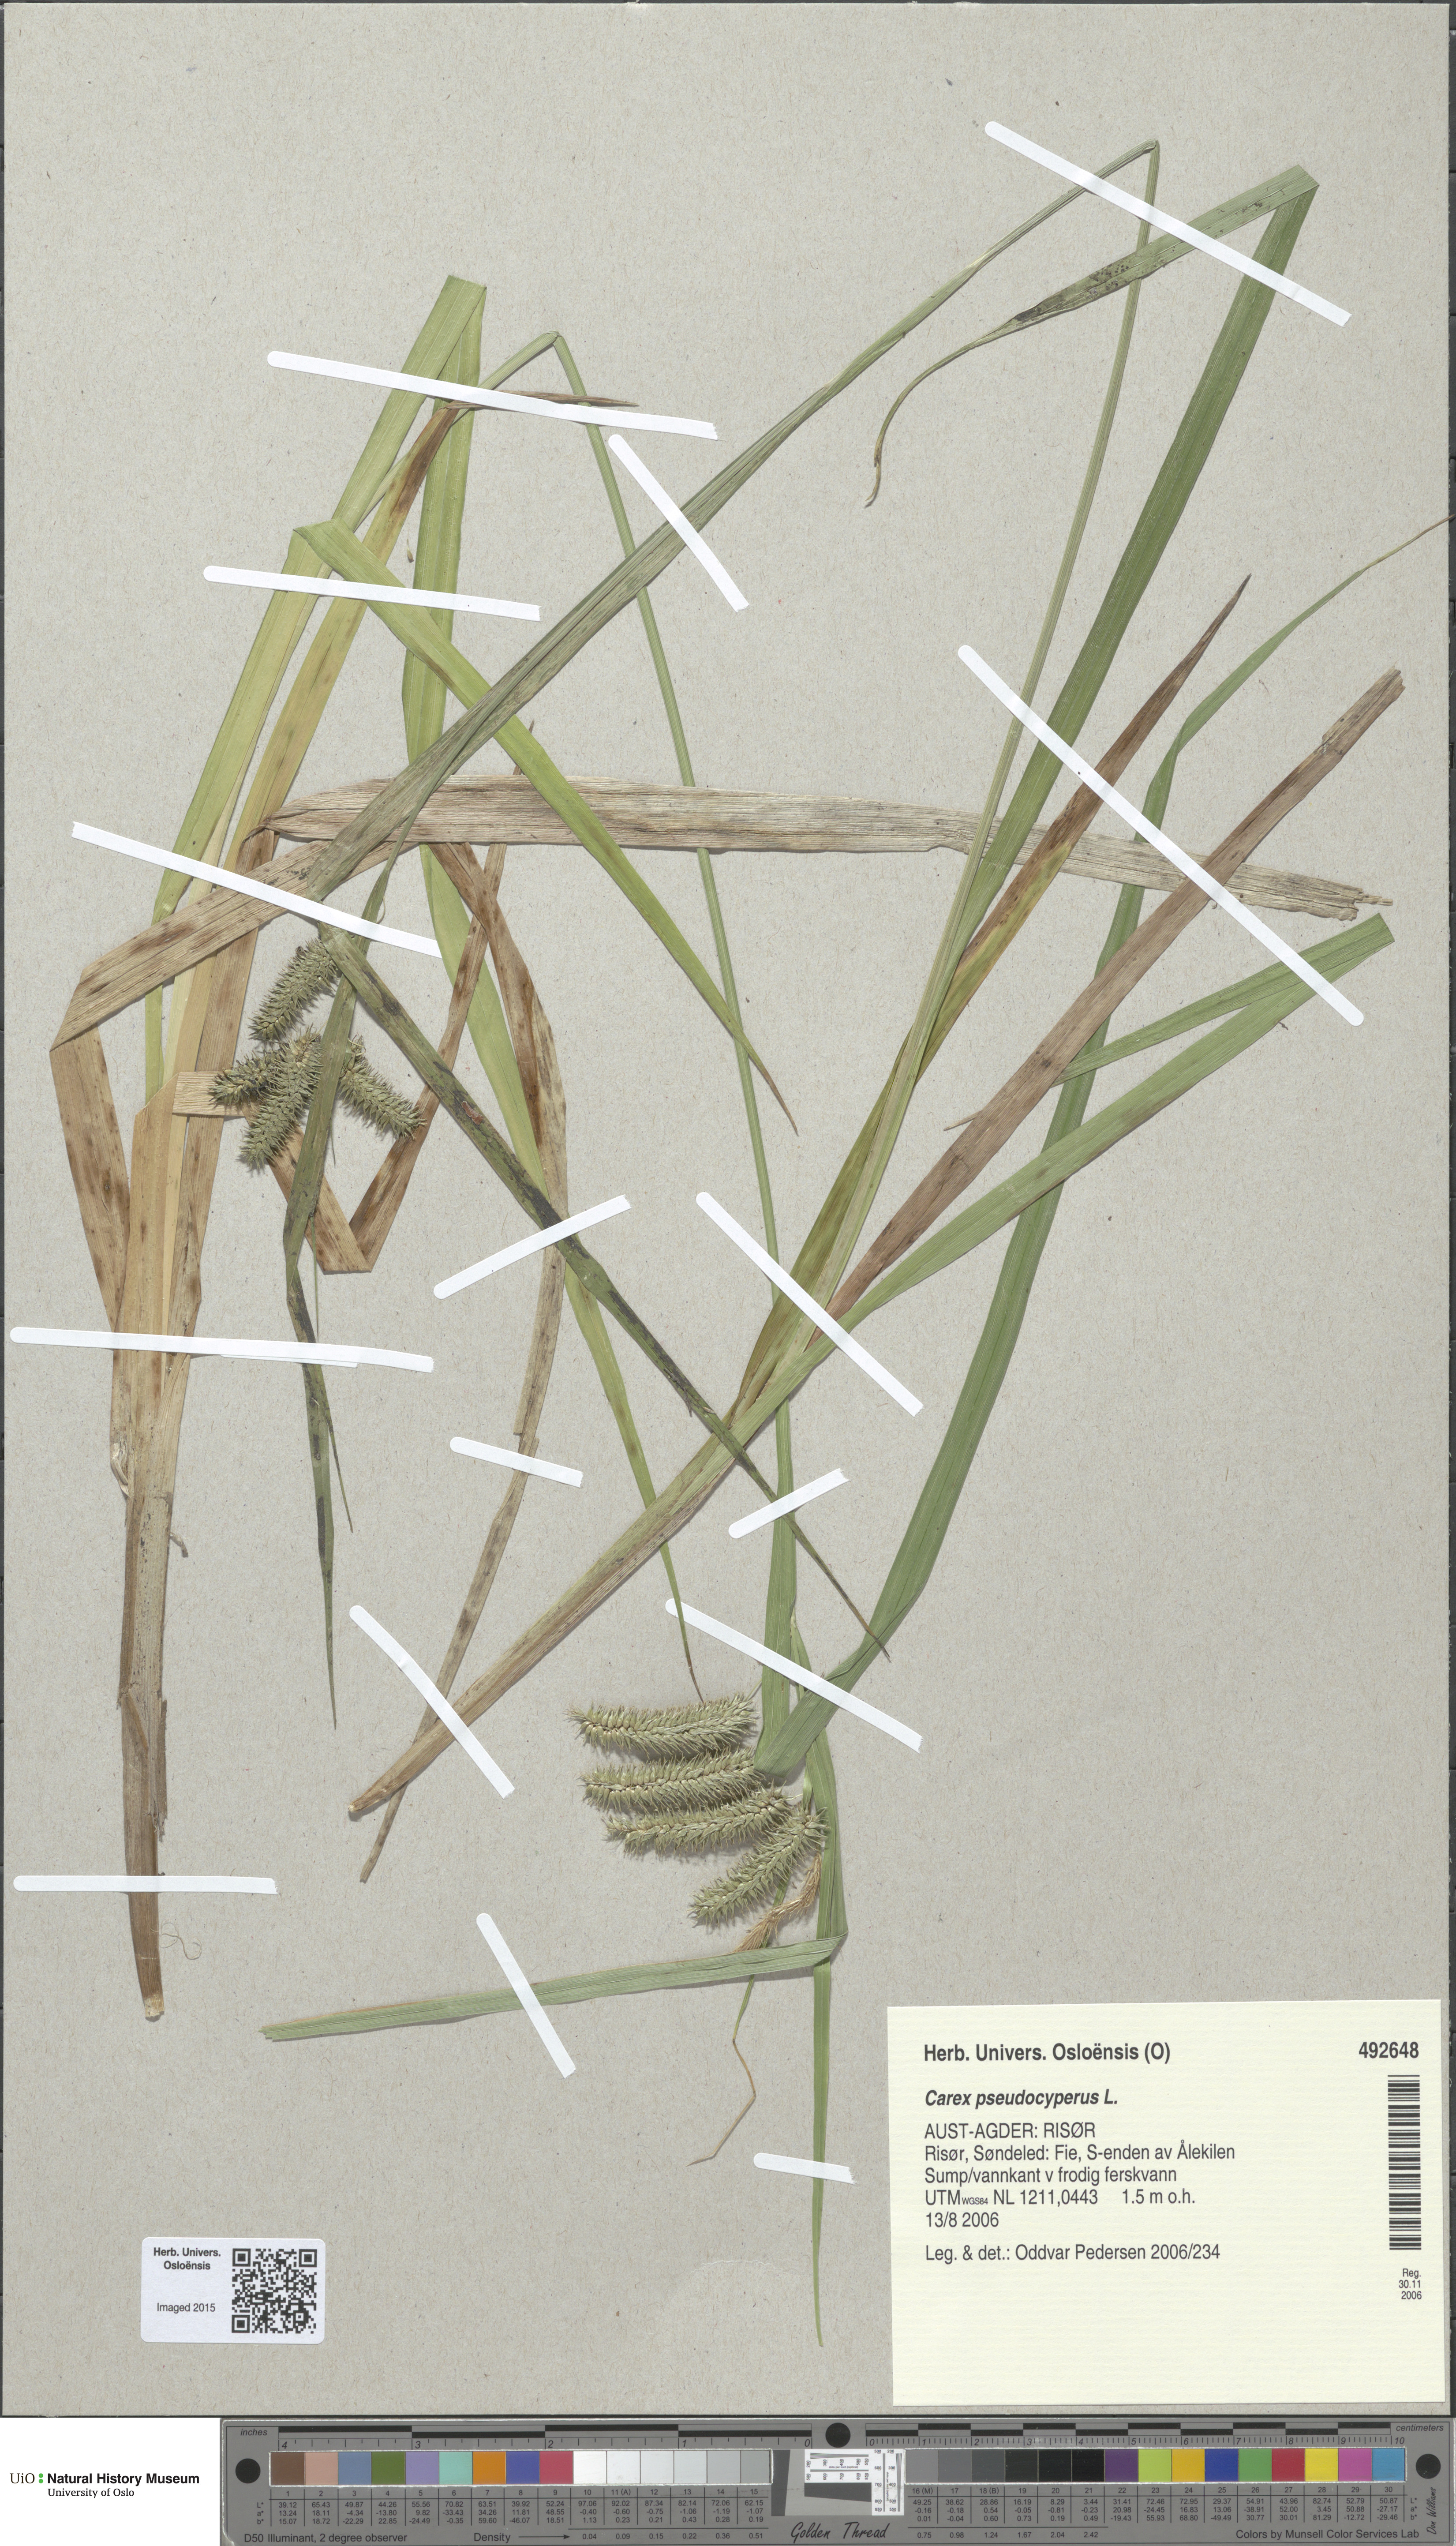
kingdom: Plantae
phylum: Tracheophyta
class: Liliopsida
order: Poales
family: Cyperaceae
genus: Carex
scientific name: Carex pseudocyperus
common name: Cyperus sedge
